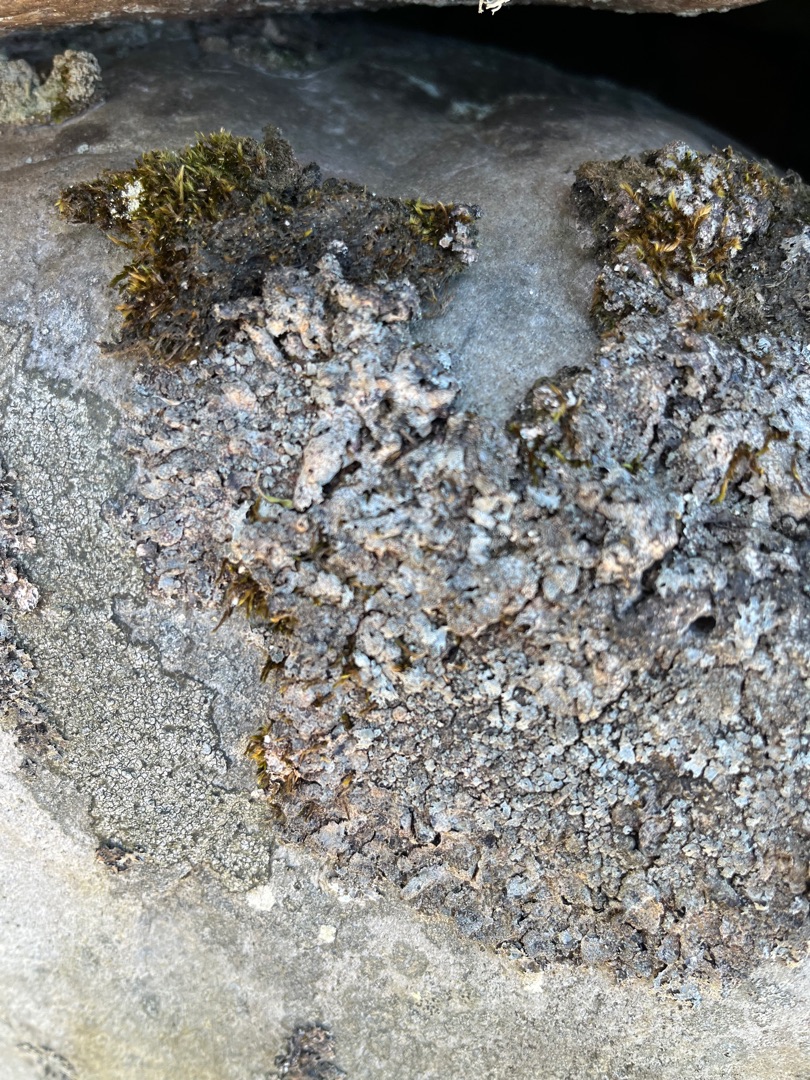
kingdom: Fungi
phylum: Ascomycota
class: Lecanoromycetes
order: Lecanorales
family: Parmeliaceae
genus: Parmelia
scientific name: Parmelia saxatilis
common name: Farve-skållav
